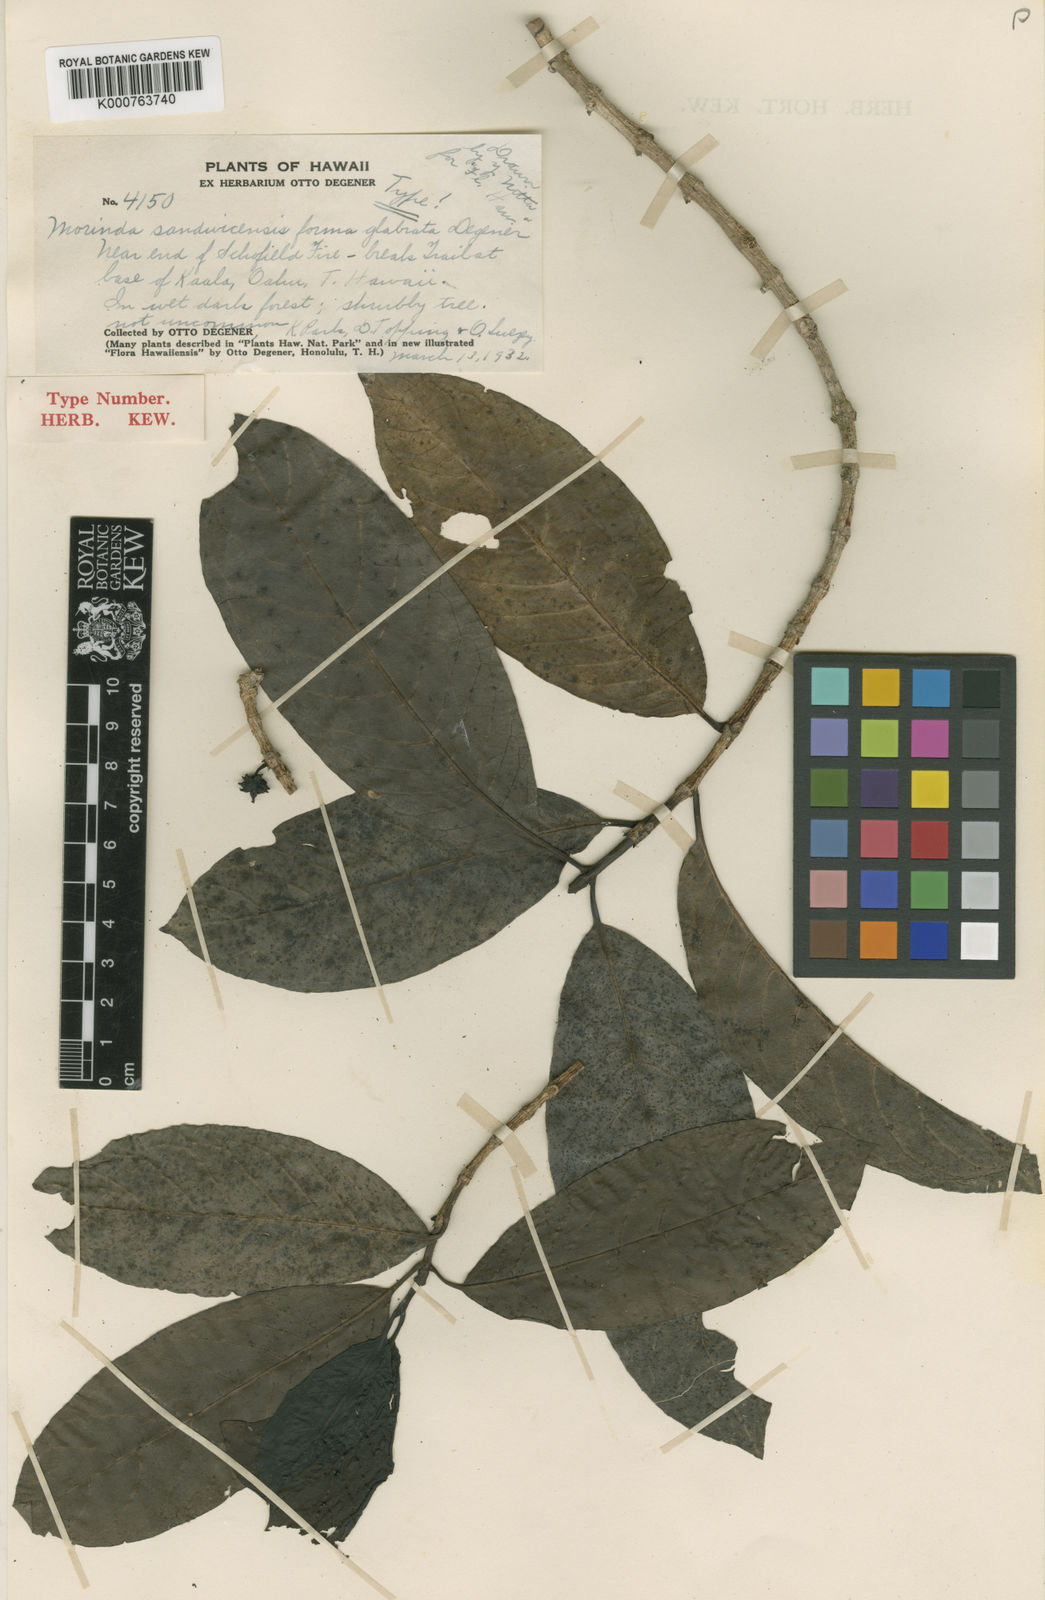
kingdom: Plantae
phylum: Tracheophyta
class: Magnoliopsida
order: Gentianales
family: Rubiaceae
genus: Gynochthodes
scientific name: Gynochthodes trimera
